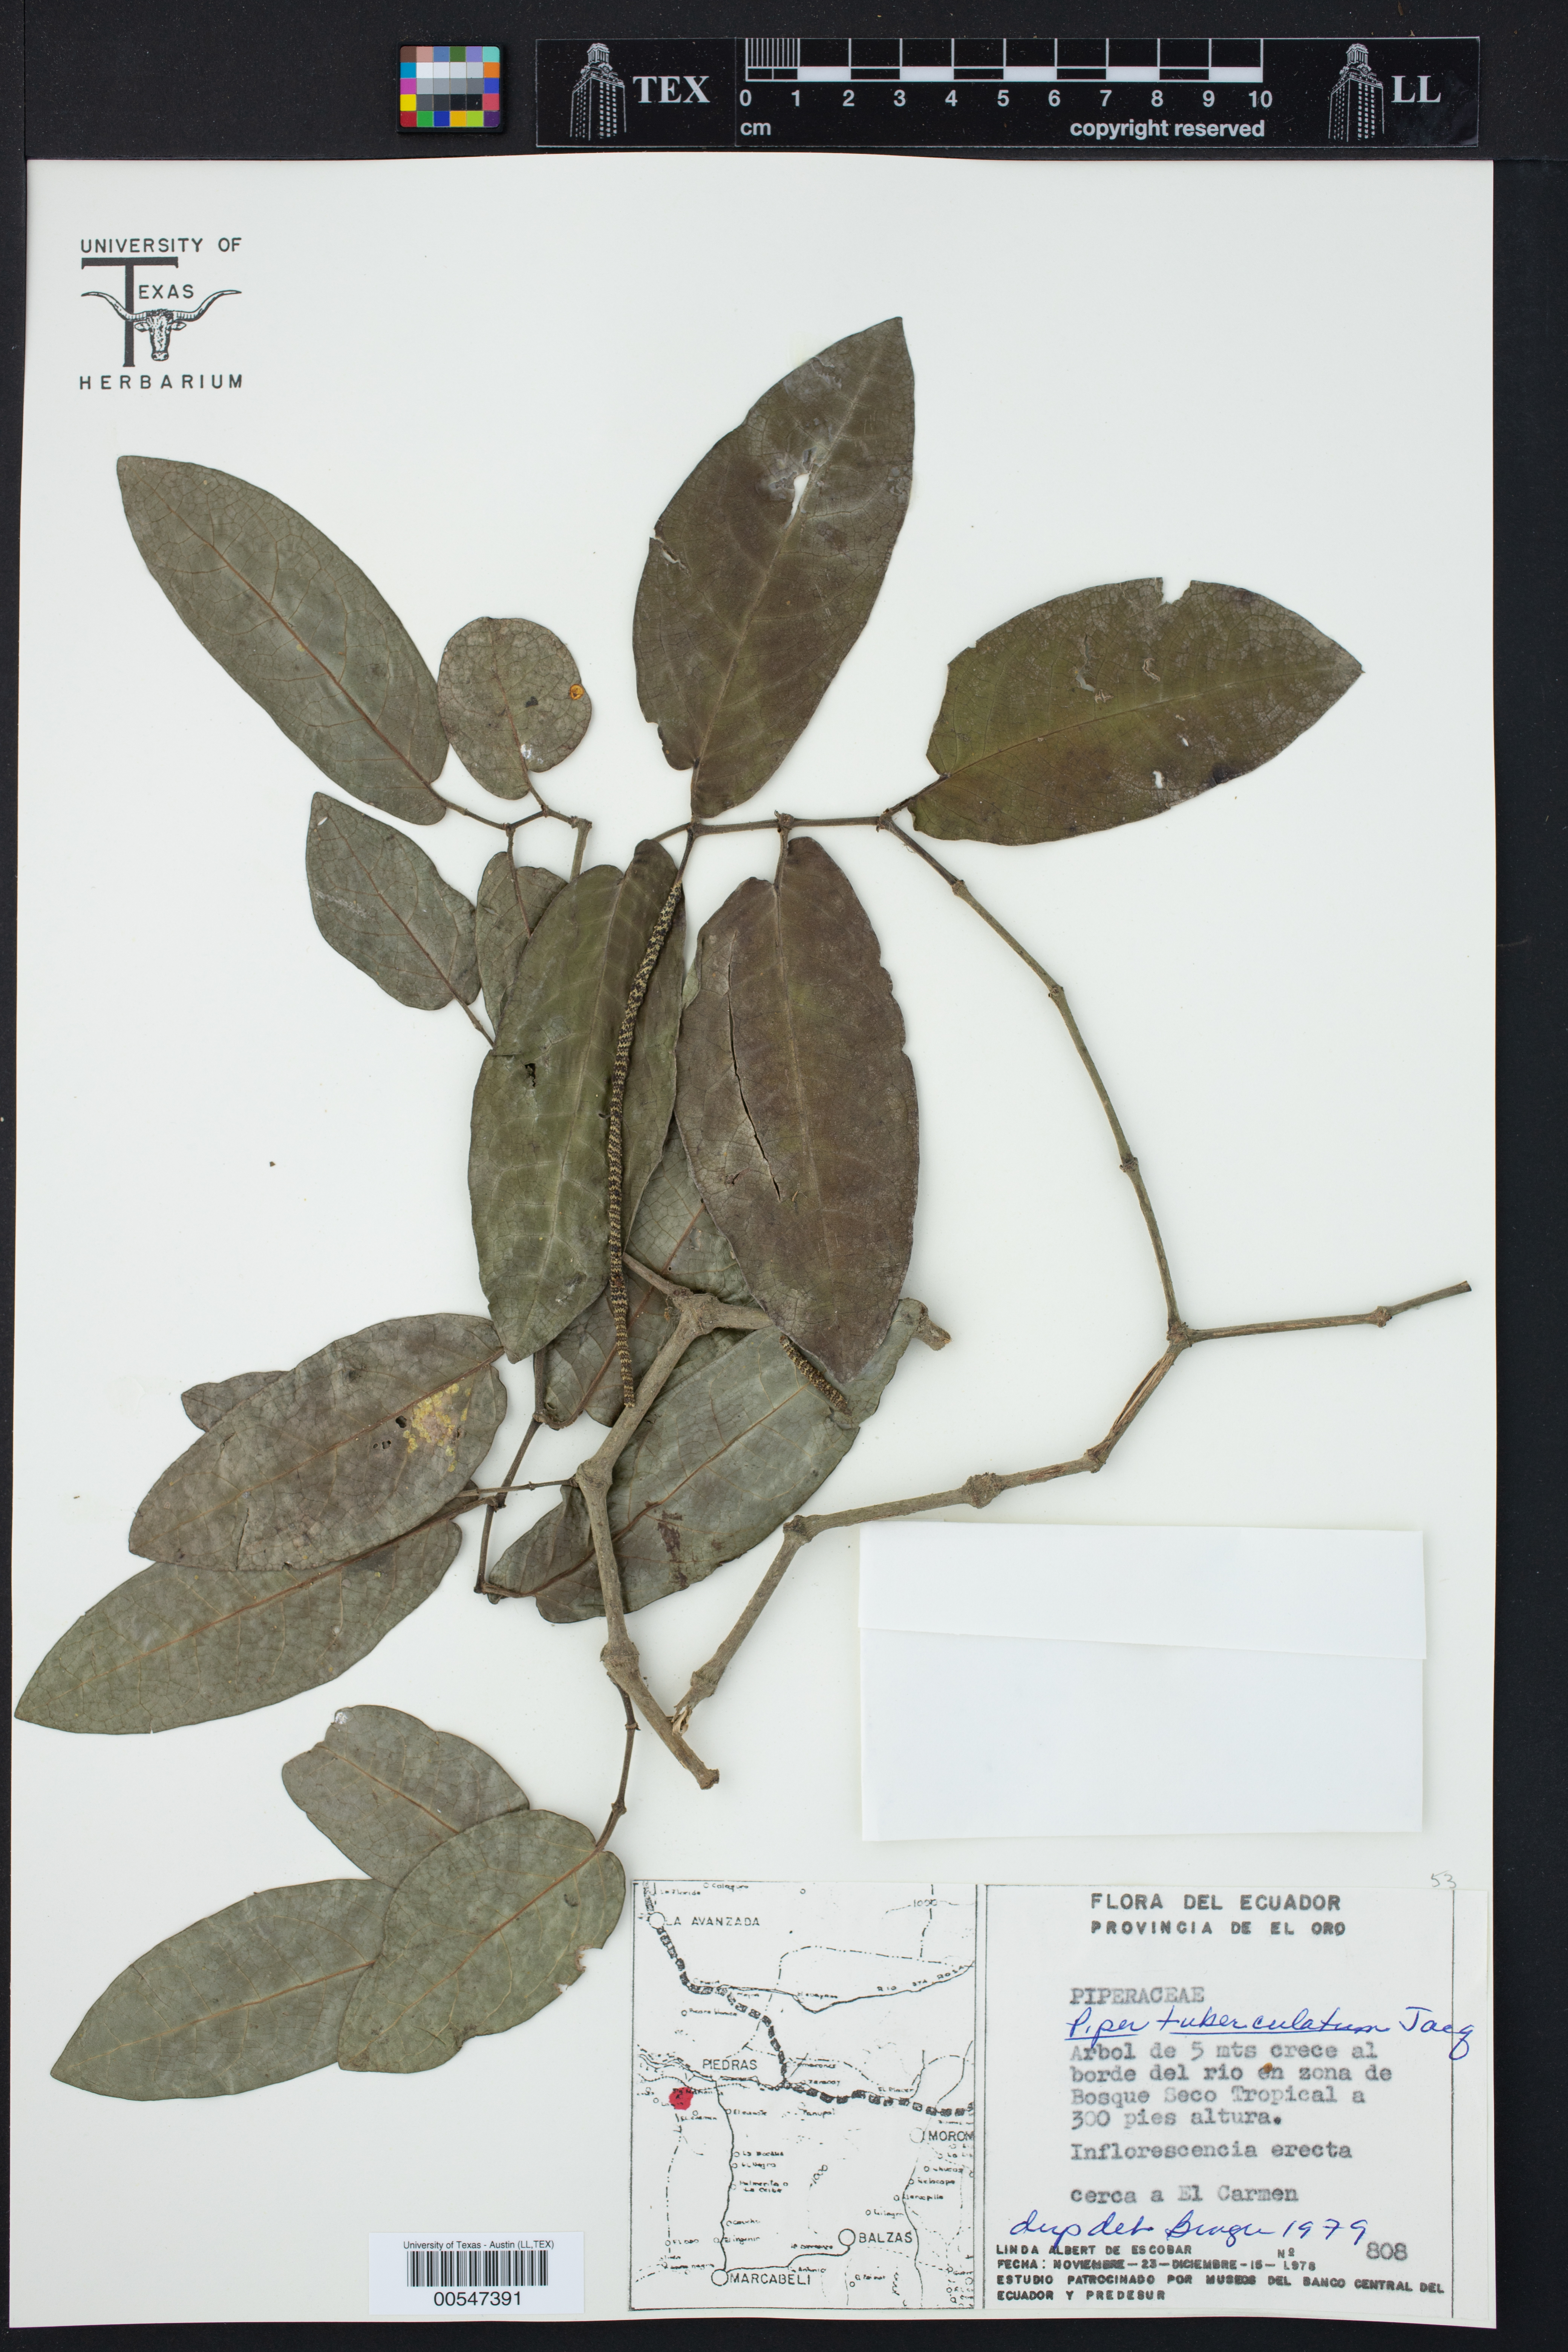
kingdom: Plantae
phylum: Tracheophyta
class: Magnoliopsida
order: Piperales
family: Piperaceae
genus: Piper
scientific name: Piper tuberculatum
